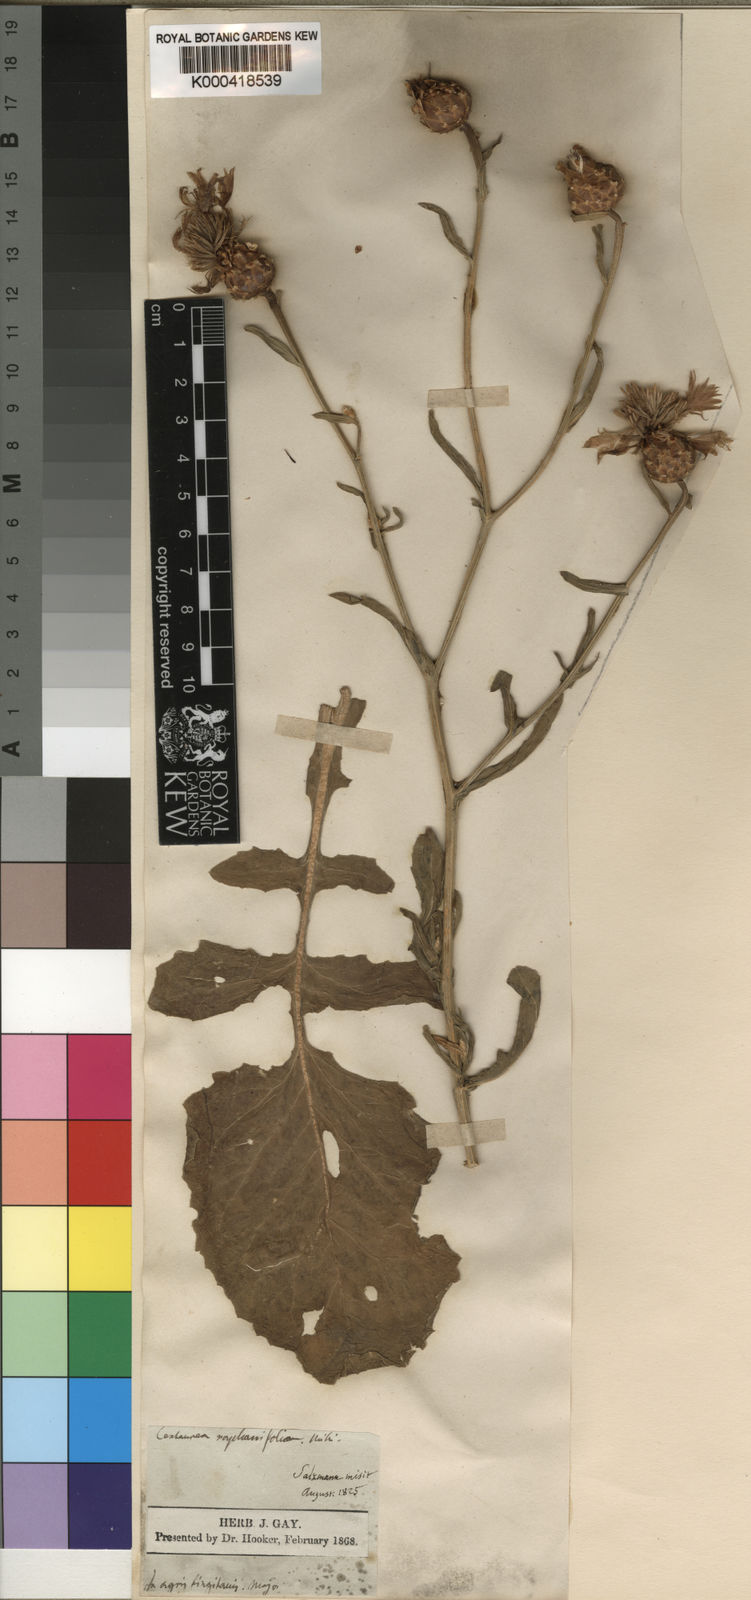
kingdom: Plantae
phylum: Tracheophyta
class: Magnoliopsida
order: Asterales
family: Asteraceae
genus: Centaurea
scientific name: Centaurea diluta
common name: Lesser star-thistle
